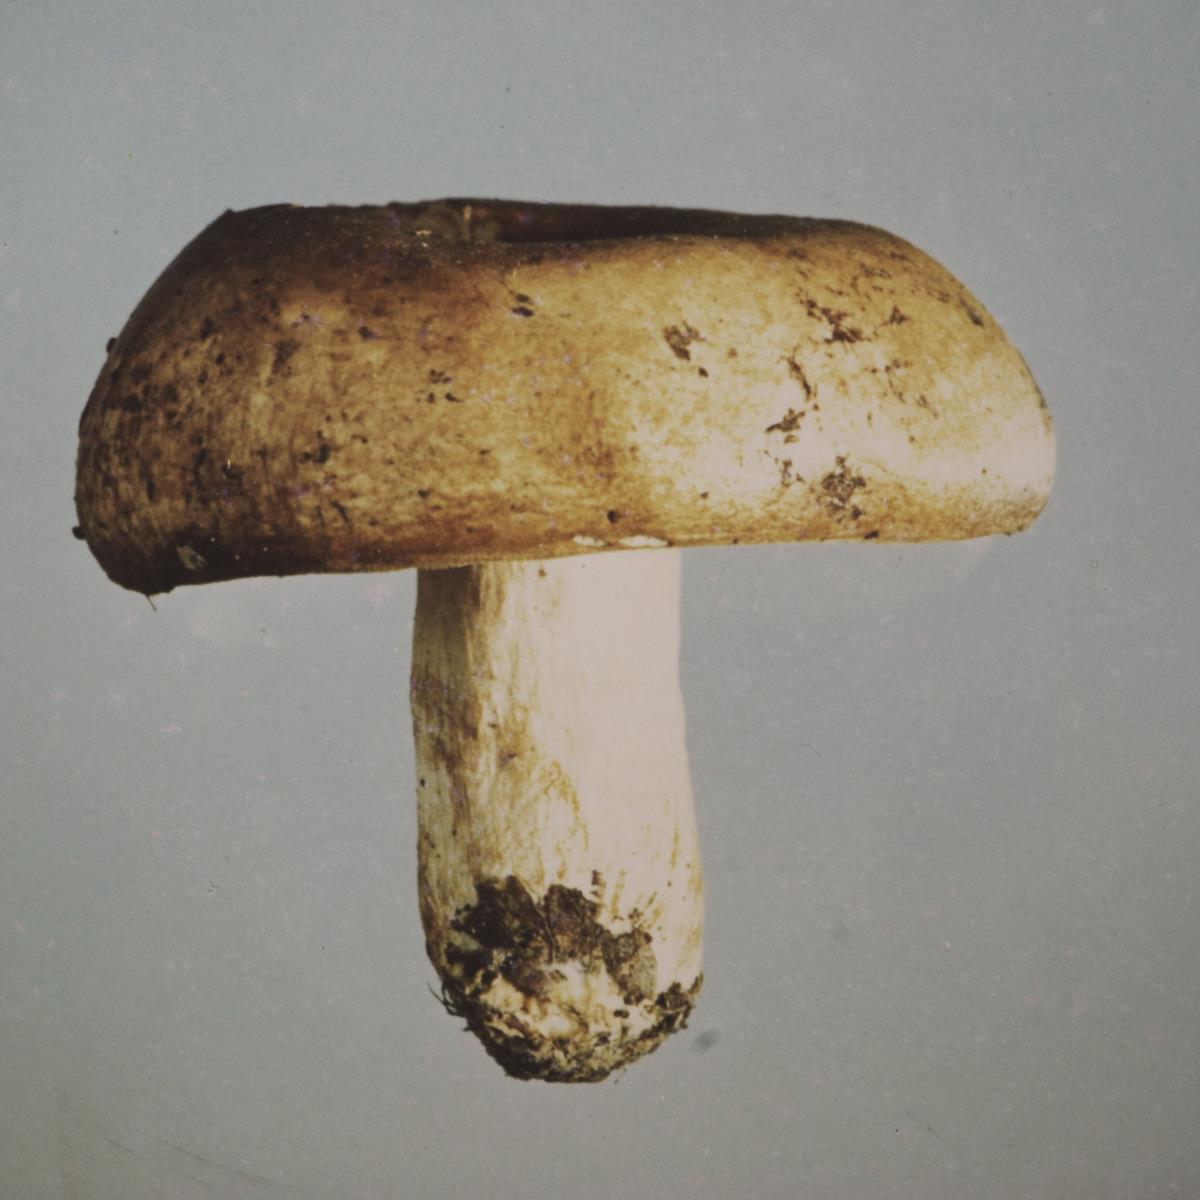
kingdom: Fungi
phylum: Basidiomycota
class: Agaricomycetes
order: Russulales
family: Russulaceae
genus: Russula
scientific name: Russula papakaiensis
